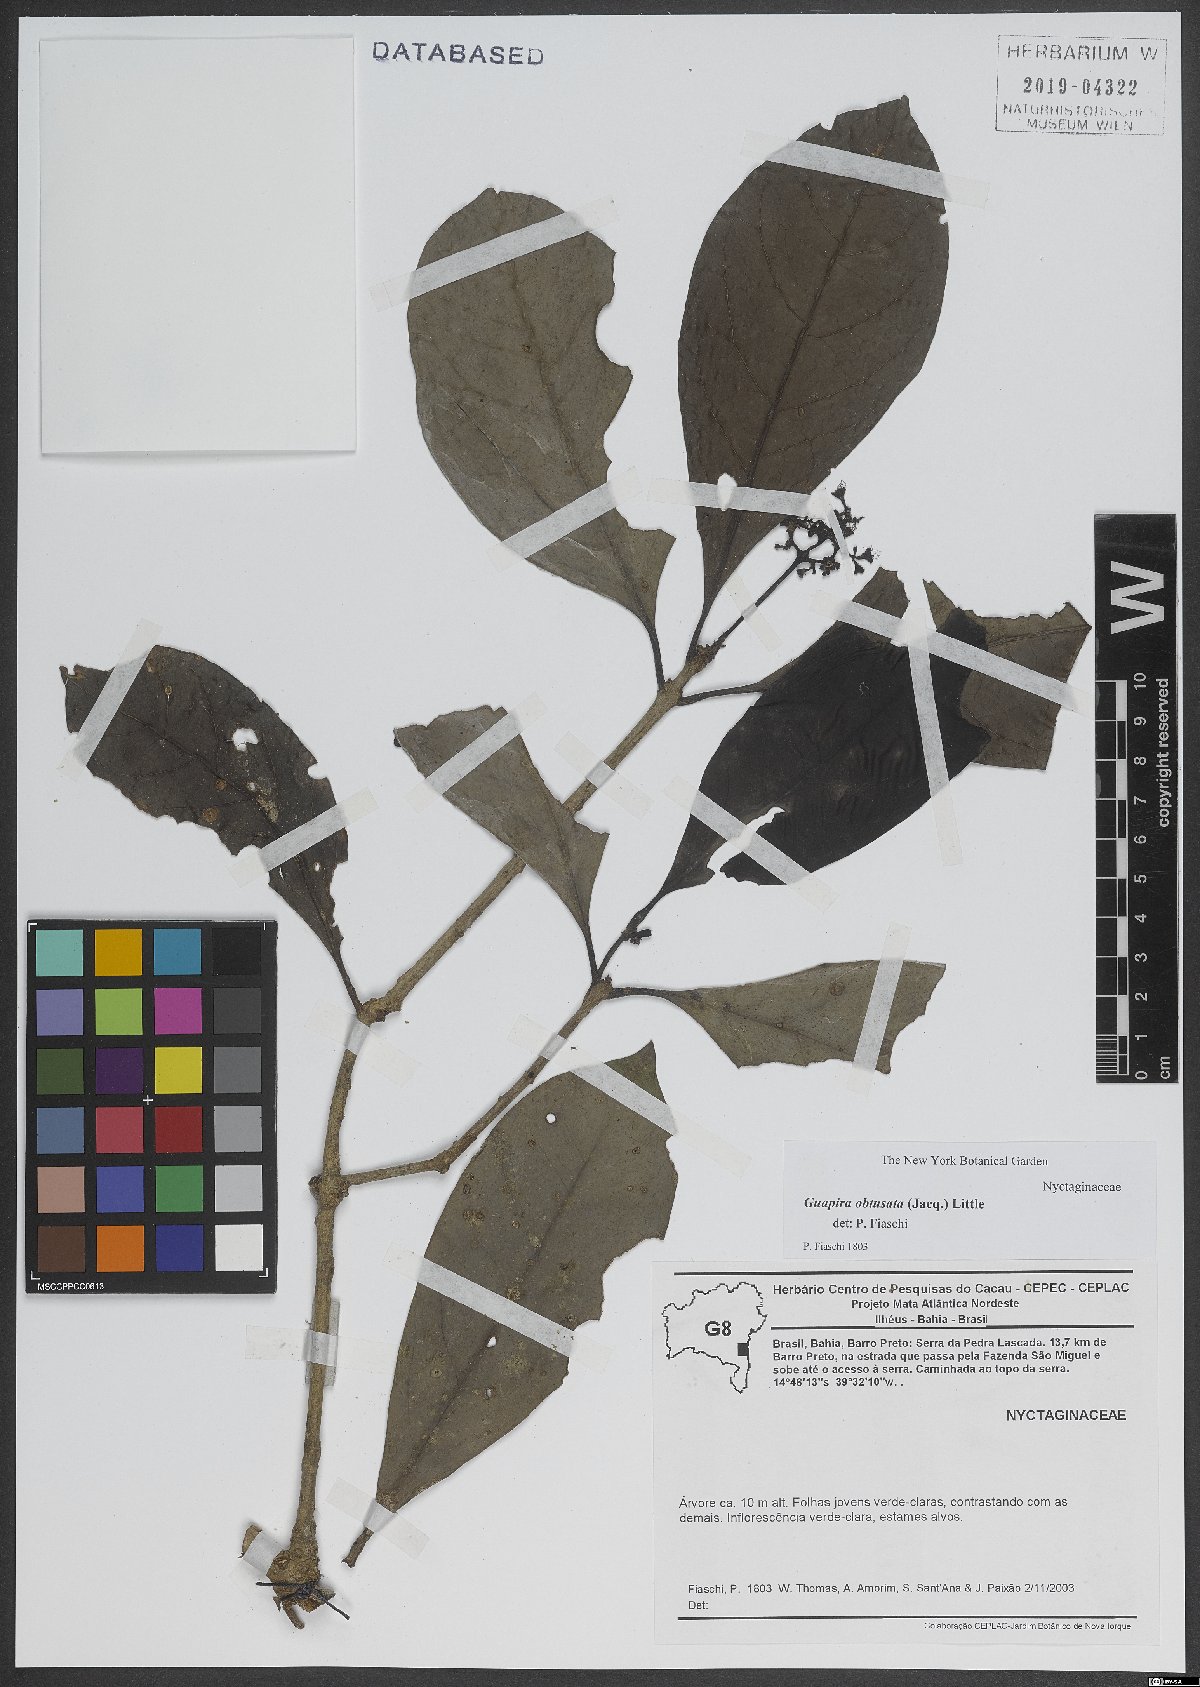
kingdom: Plantae
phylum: Tracheophyta
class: Magnoliopsida
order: Caryophyllales
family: Nyctaginaceae
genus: Guapira
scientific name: Guapira obtusata
